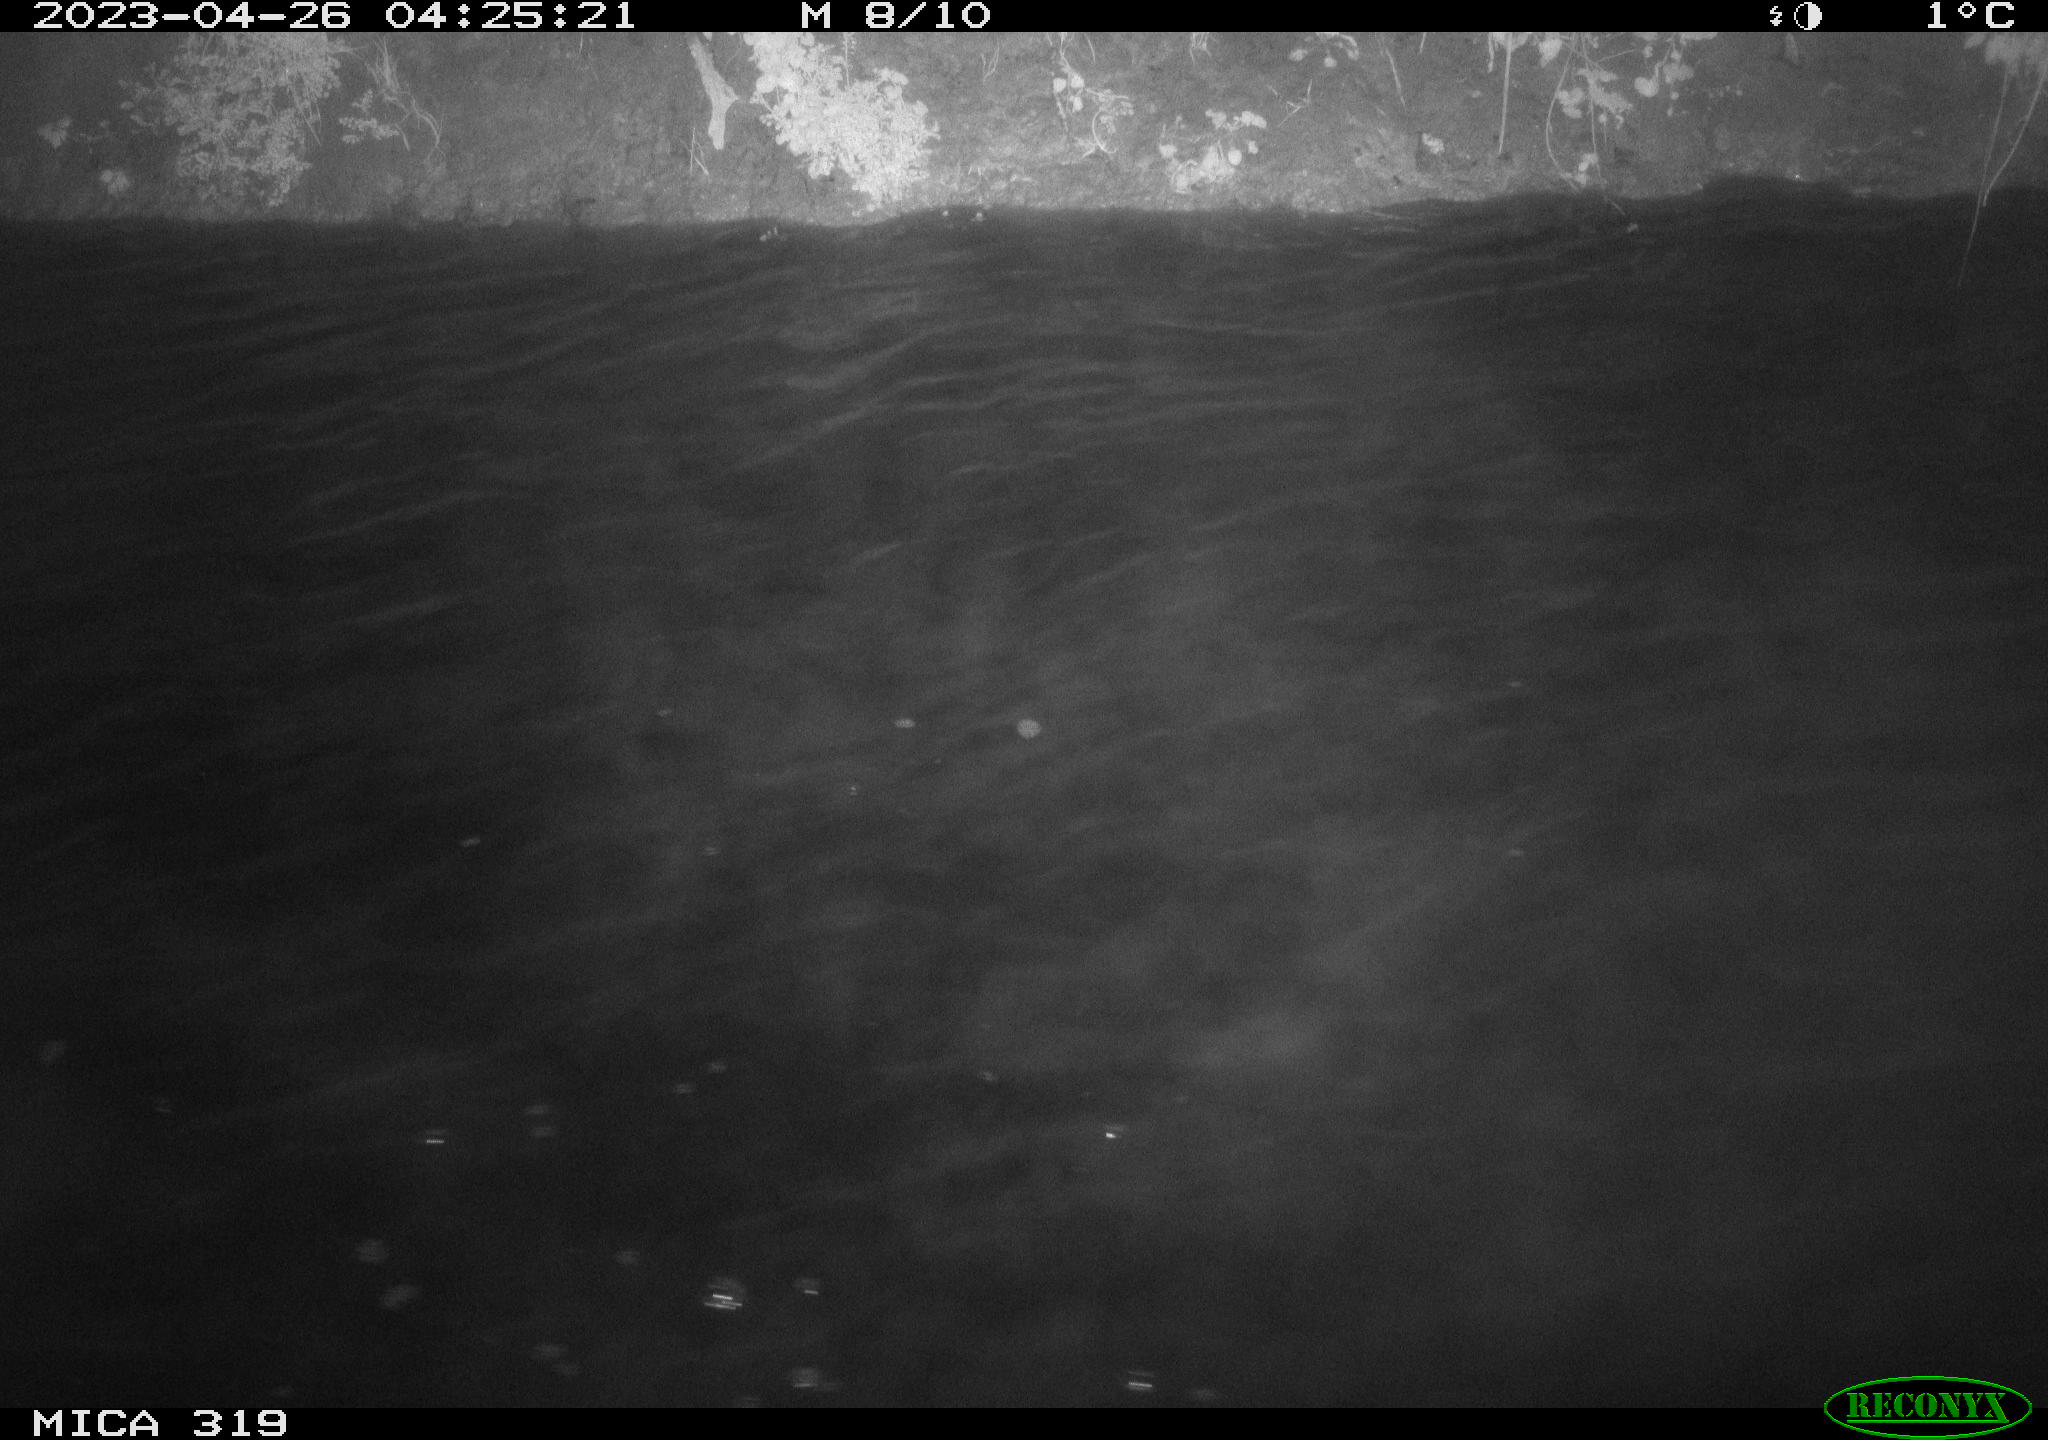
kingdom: Animalia
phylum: Chordata
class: Aves
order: Anseriformes
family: Anatidae
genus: Anas
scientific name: Anas
